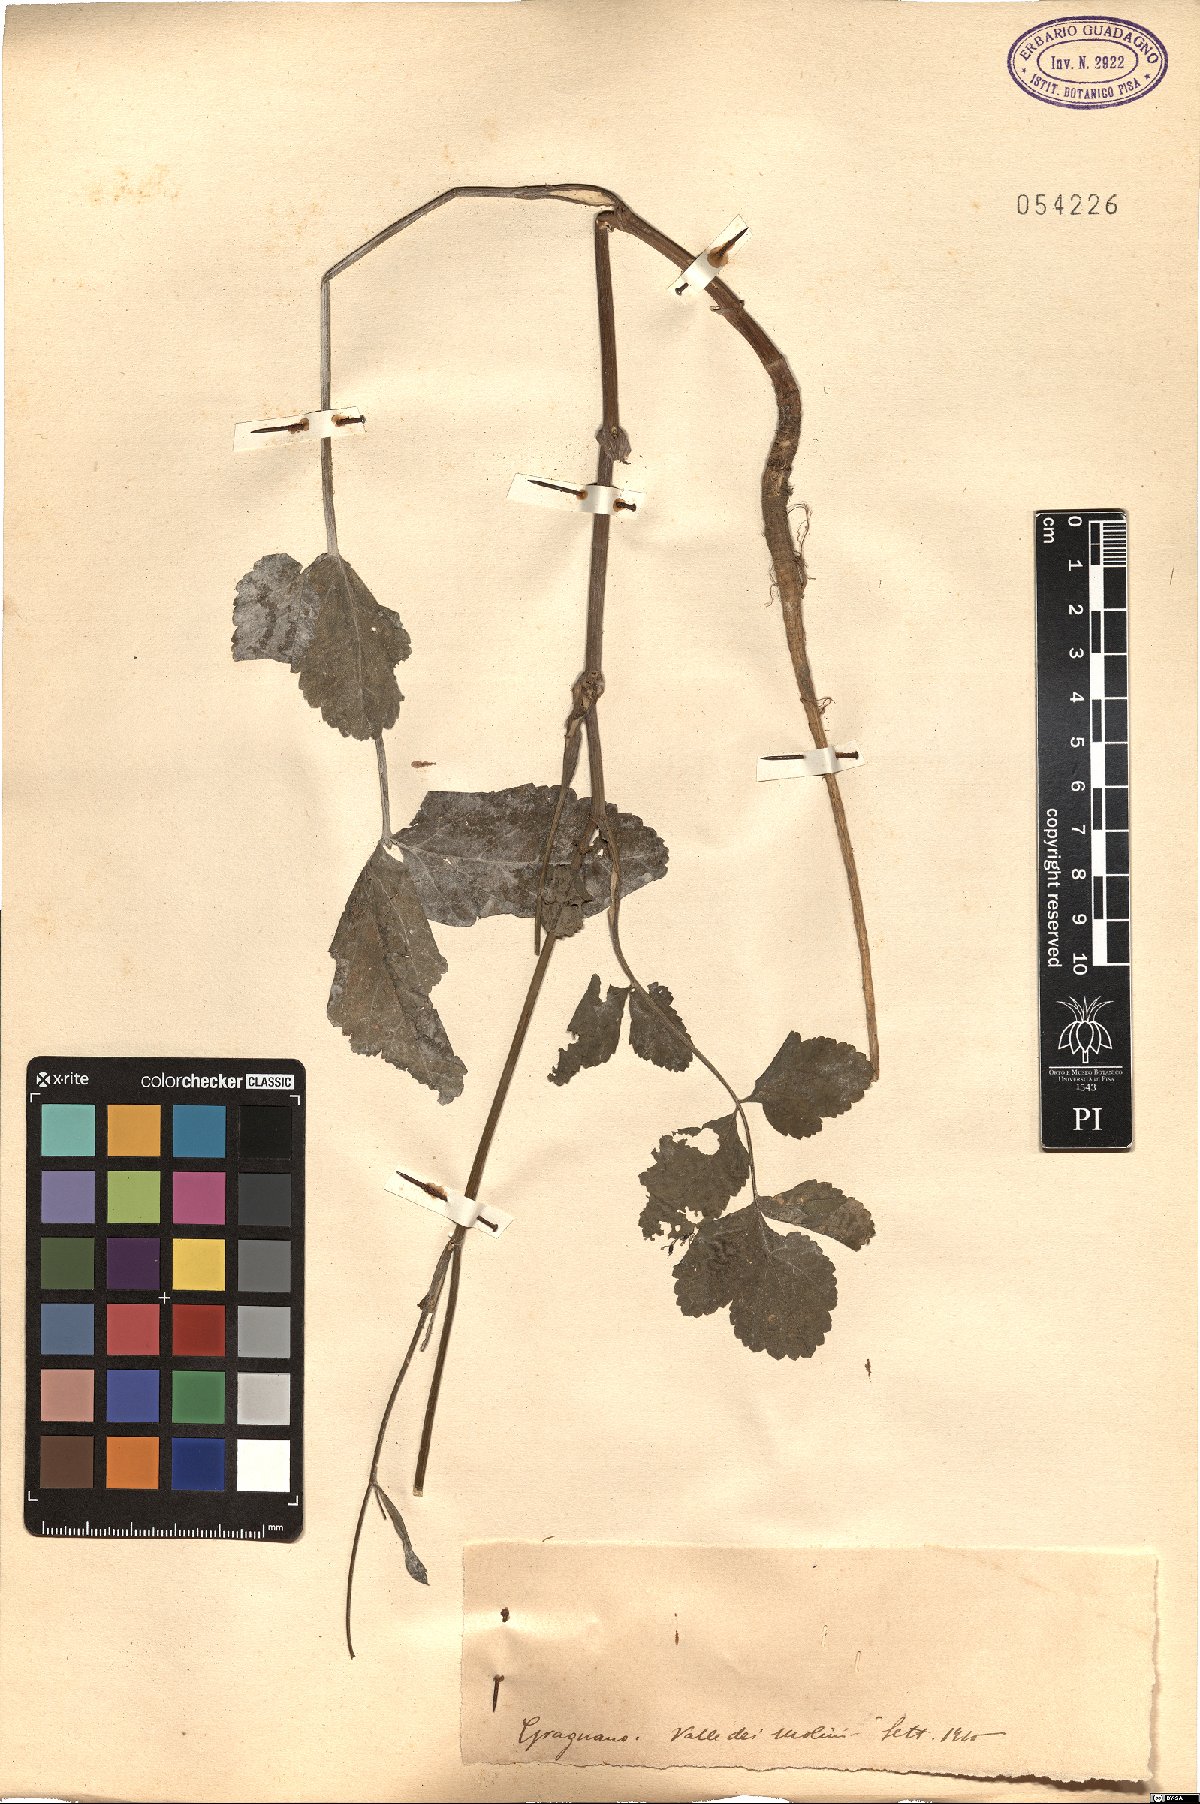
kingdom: Plantae
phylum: Tracheophyta
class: Magnoliopsida
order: Apiales
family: Apiaceae
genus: Pastinaca
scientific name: Pastinaca
